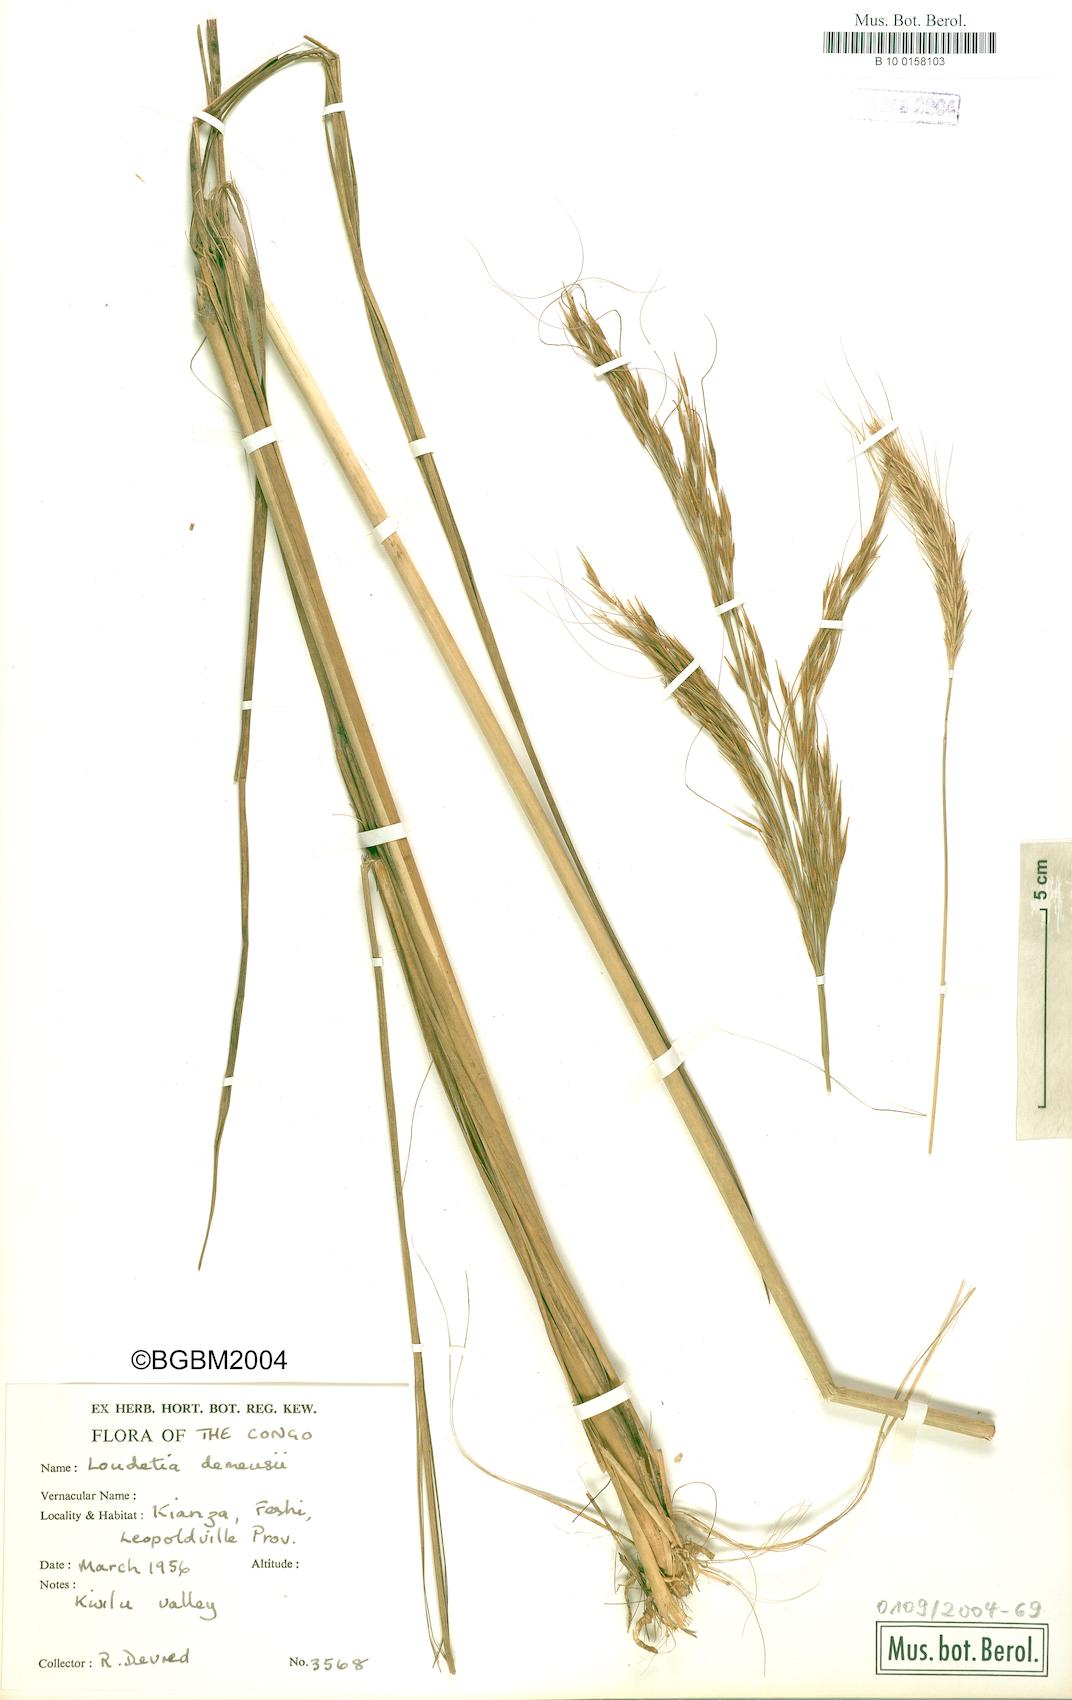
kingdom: Plantae
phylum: Tracheophyta
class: Liliopsida
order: Poales
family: Poaceae
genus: Loudetia
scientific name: Loudetia demeusei
